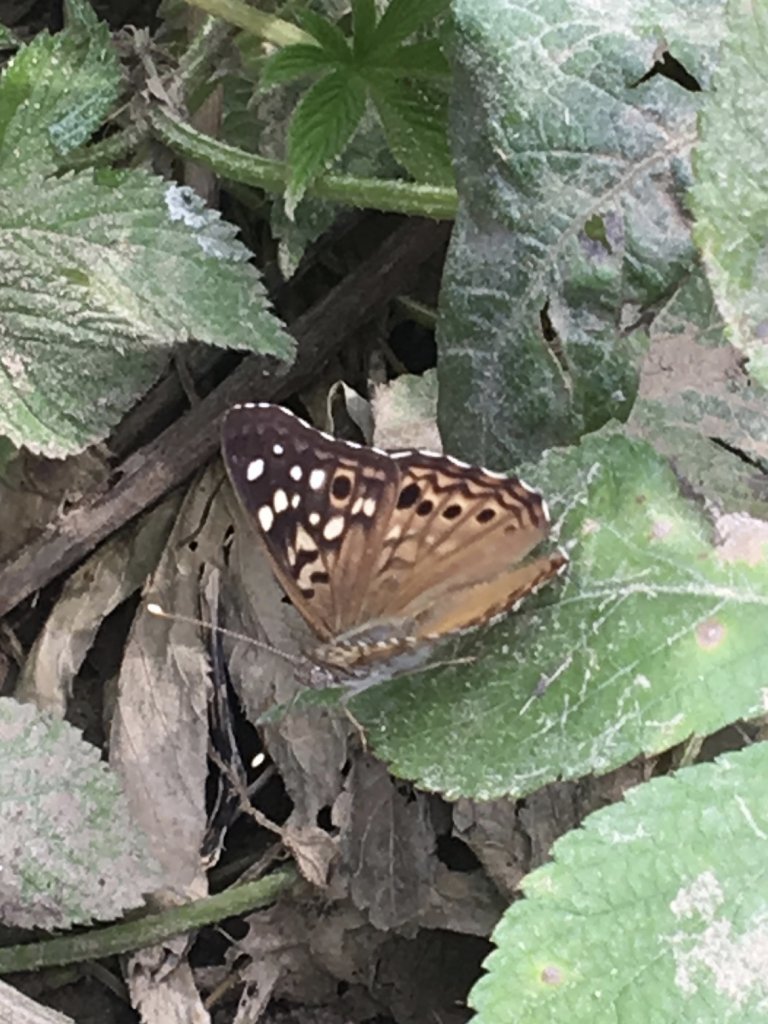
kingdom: Animalia
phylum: Arthropoda
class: Insecta
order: Lepidoptera
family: Nymphalidae
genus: Asterocampa
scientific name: Asterocampa celtis
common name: Hackberry Emperor
